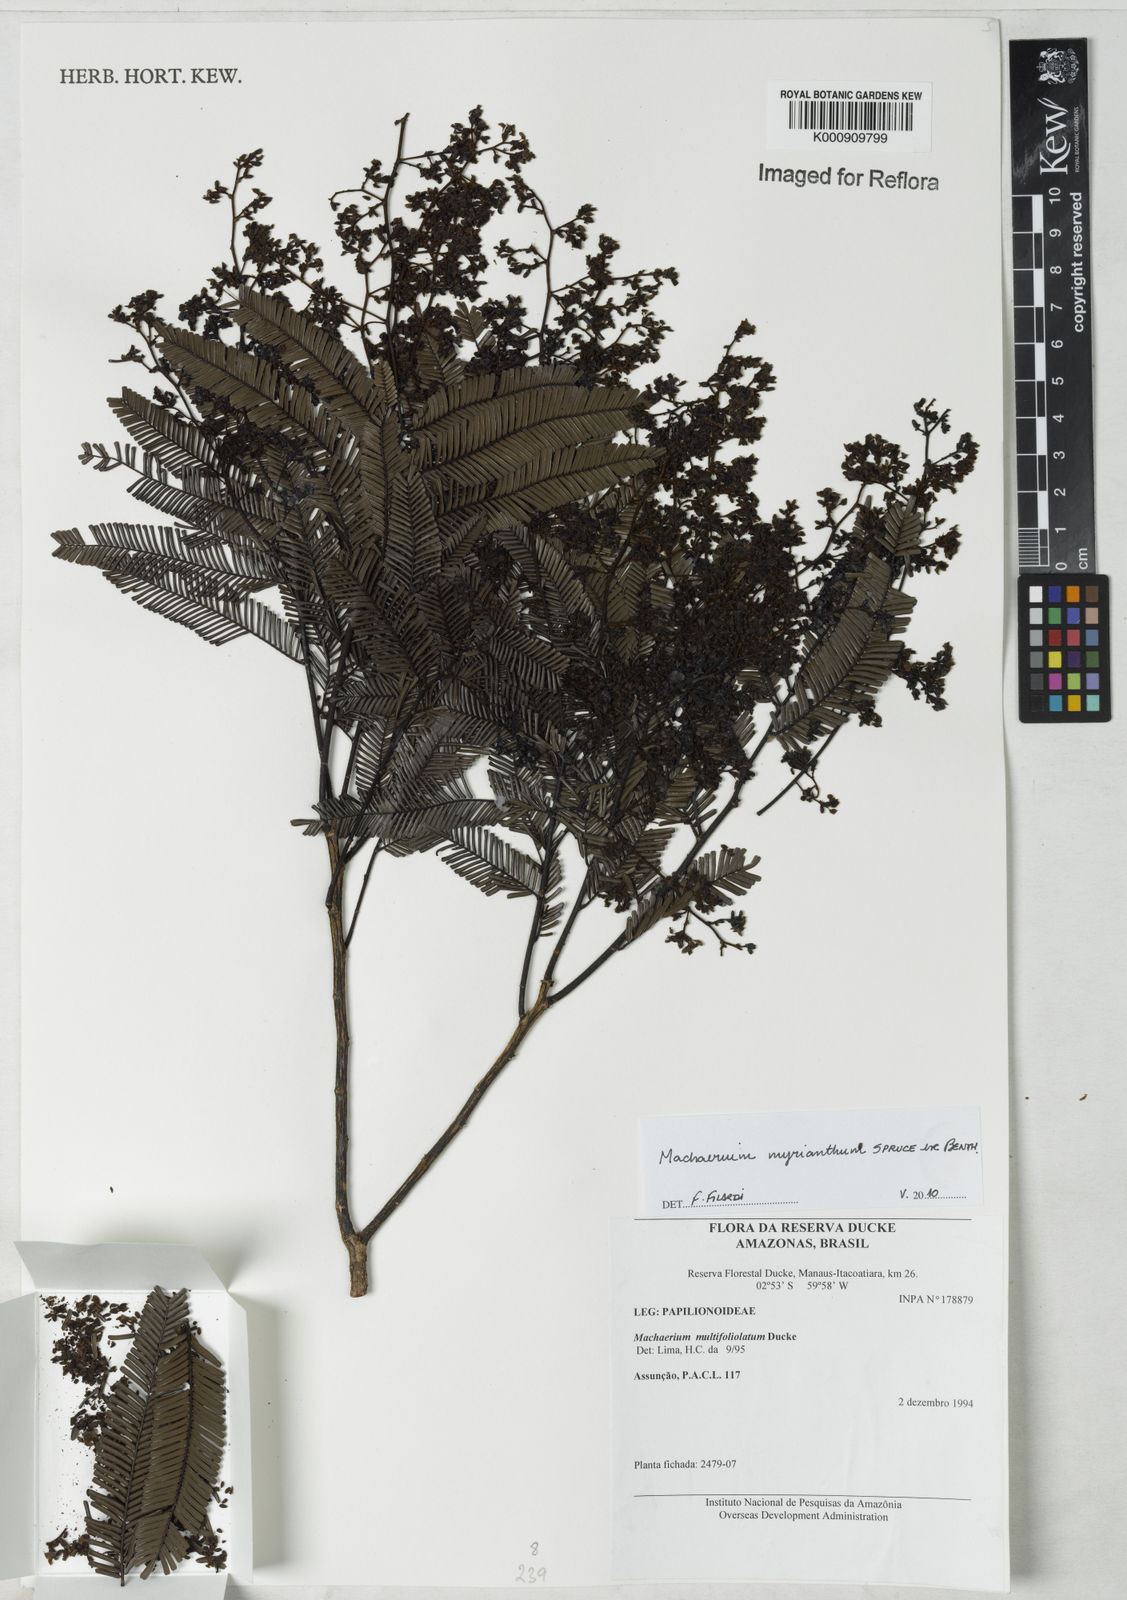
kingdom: Plantae
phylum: Tracheophyta
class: Magnoliopsida
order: Fabales
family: Fabaceae
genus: Machaerium
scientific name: Machaerium multifoliolatum
